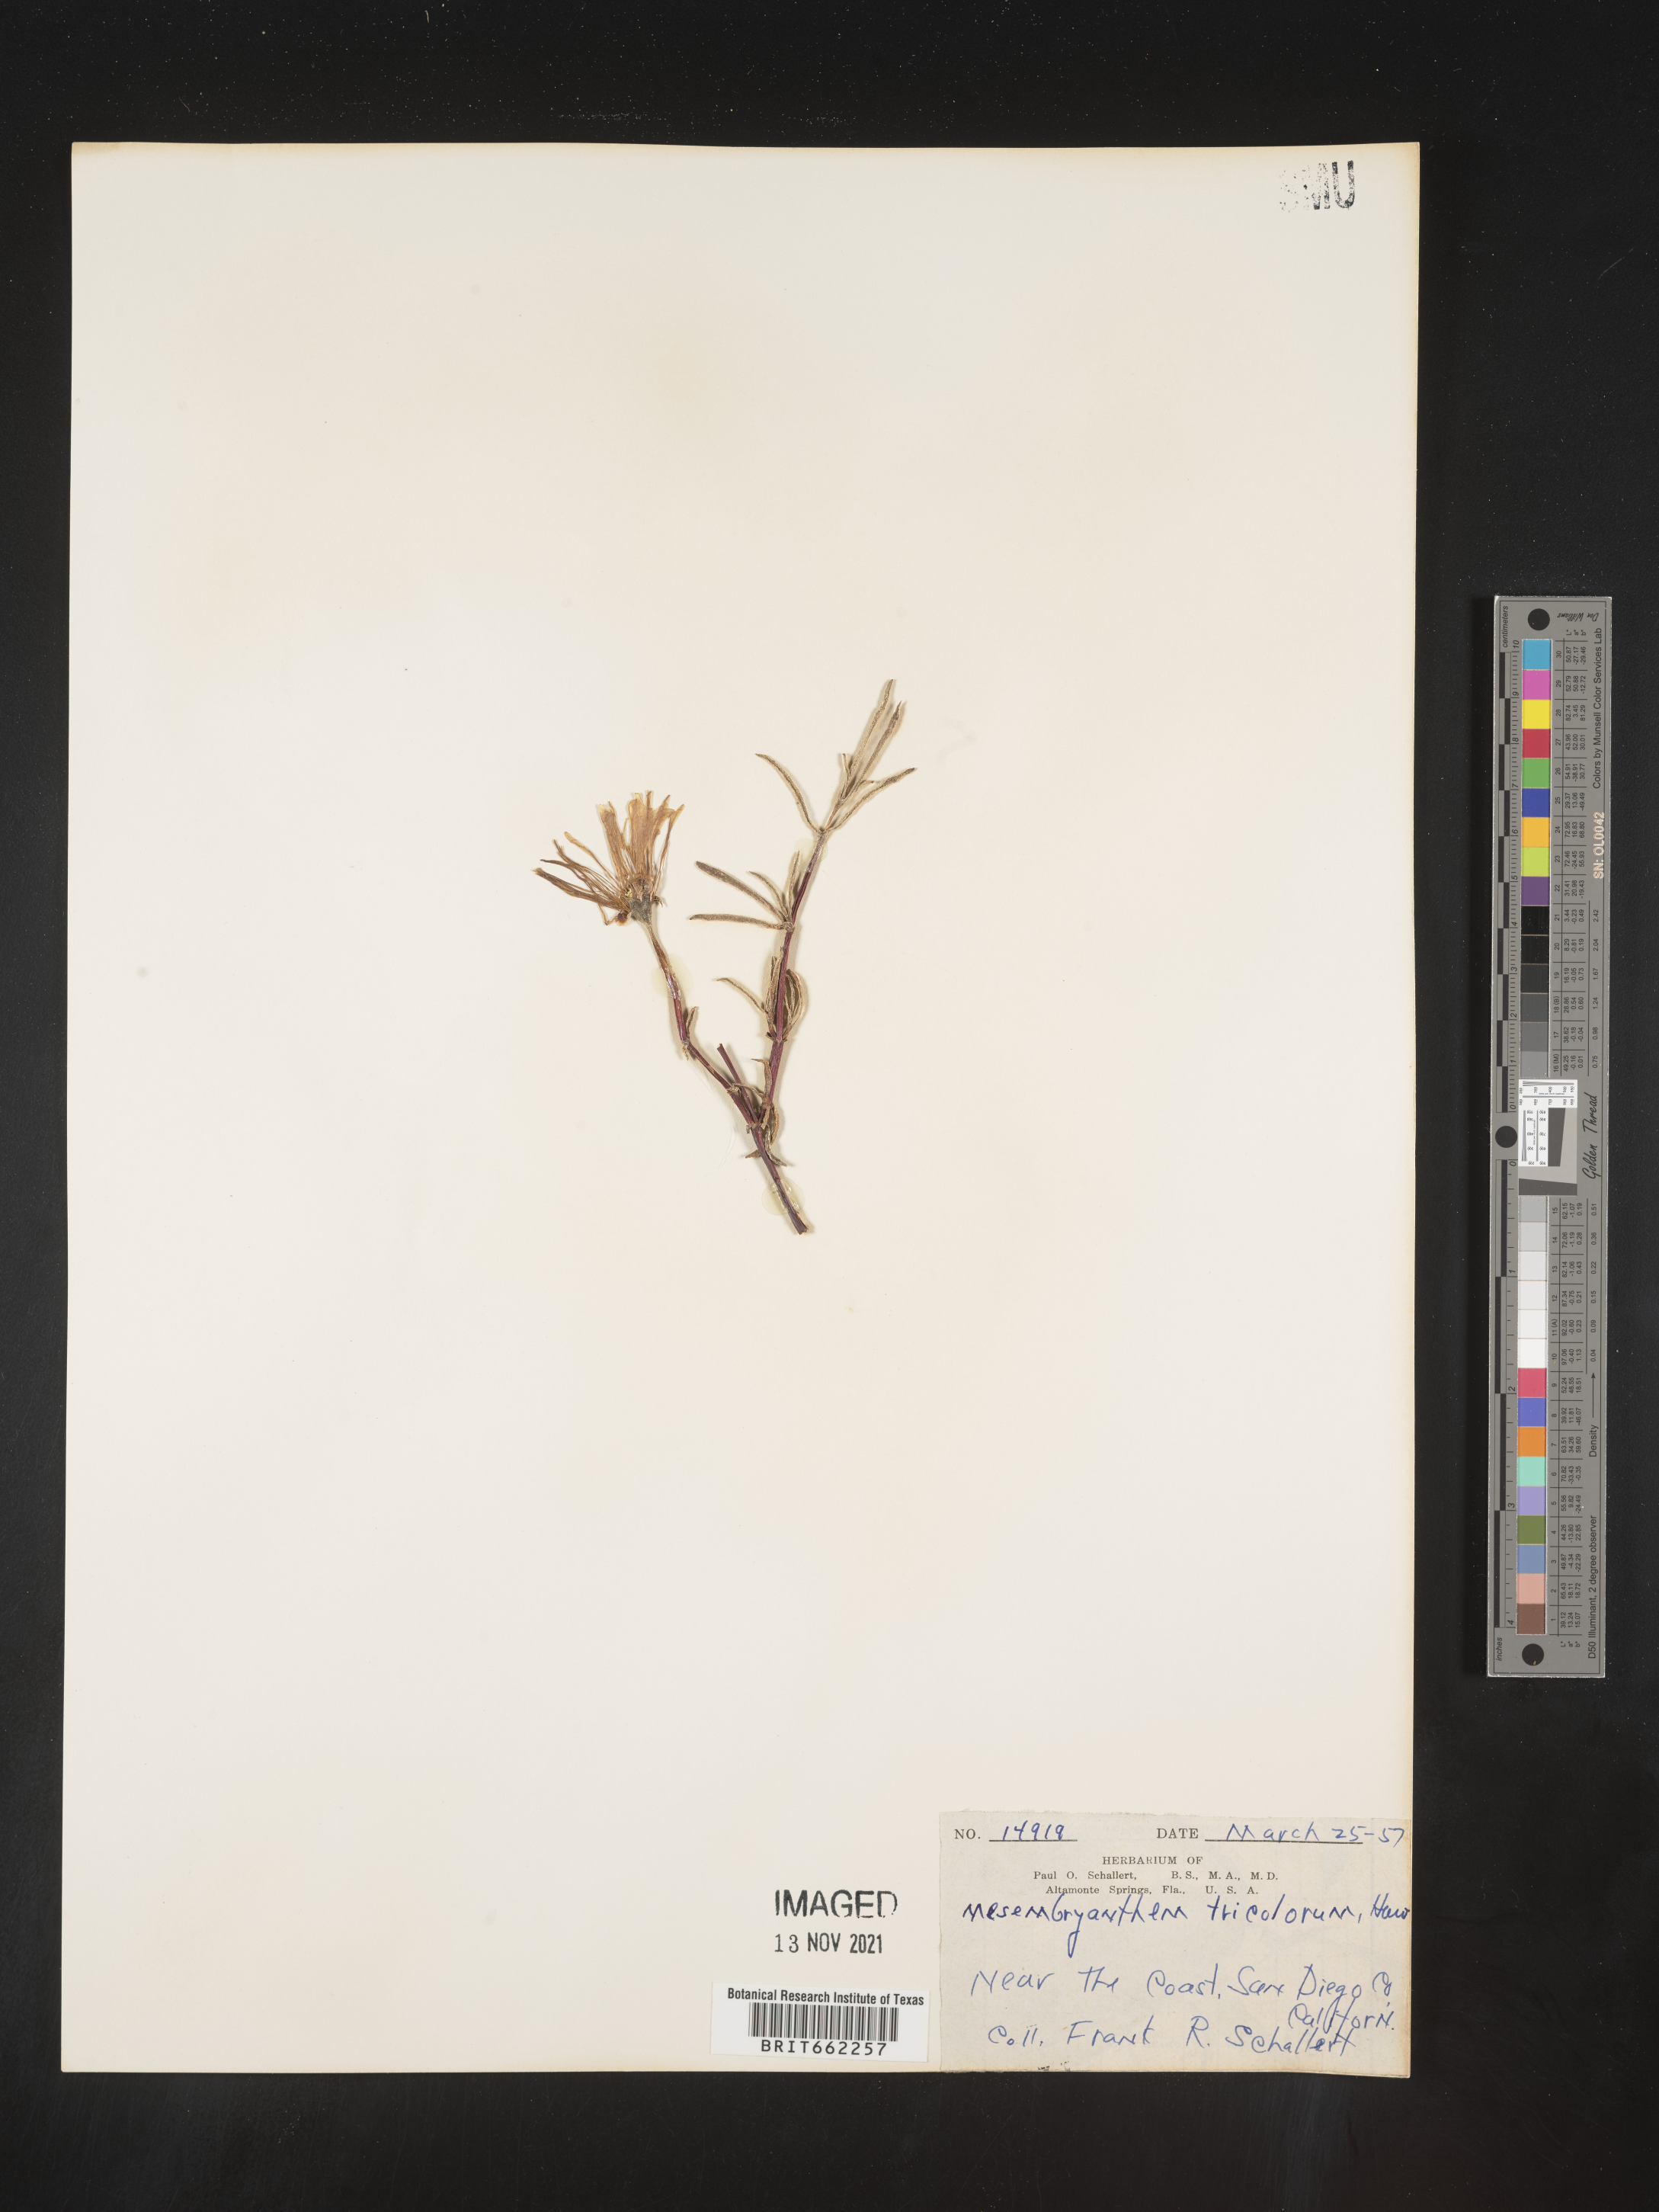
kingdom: Plantae
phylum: Tracheophyta
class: Magnoliopsida
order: Caryophyllales
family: Aizoaceae
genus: Mesembryanthemum
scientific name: Mesembryanthemum
